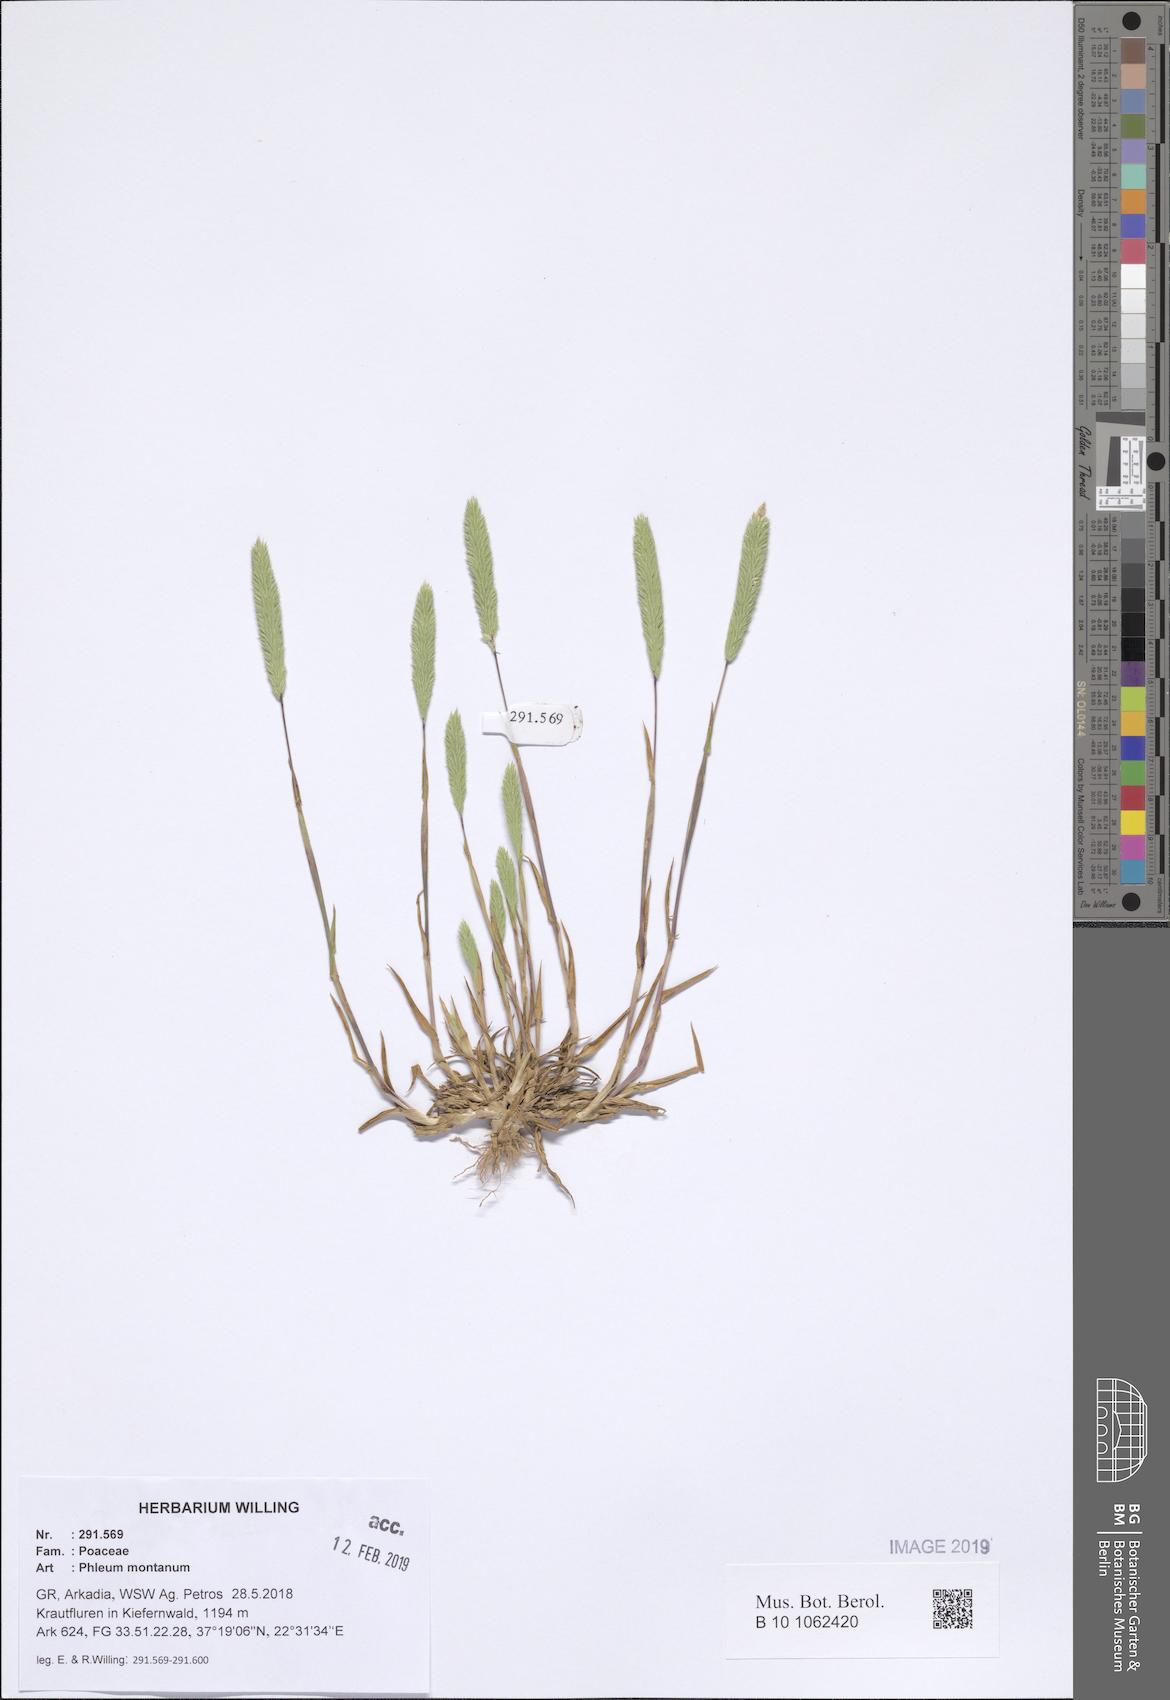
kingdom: Plantae
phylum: Tracheophyta
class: Liliopsida
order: Poales
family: Poaceae
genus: Phleum
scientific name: Phleum montanum
